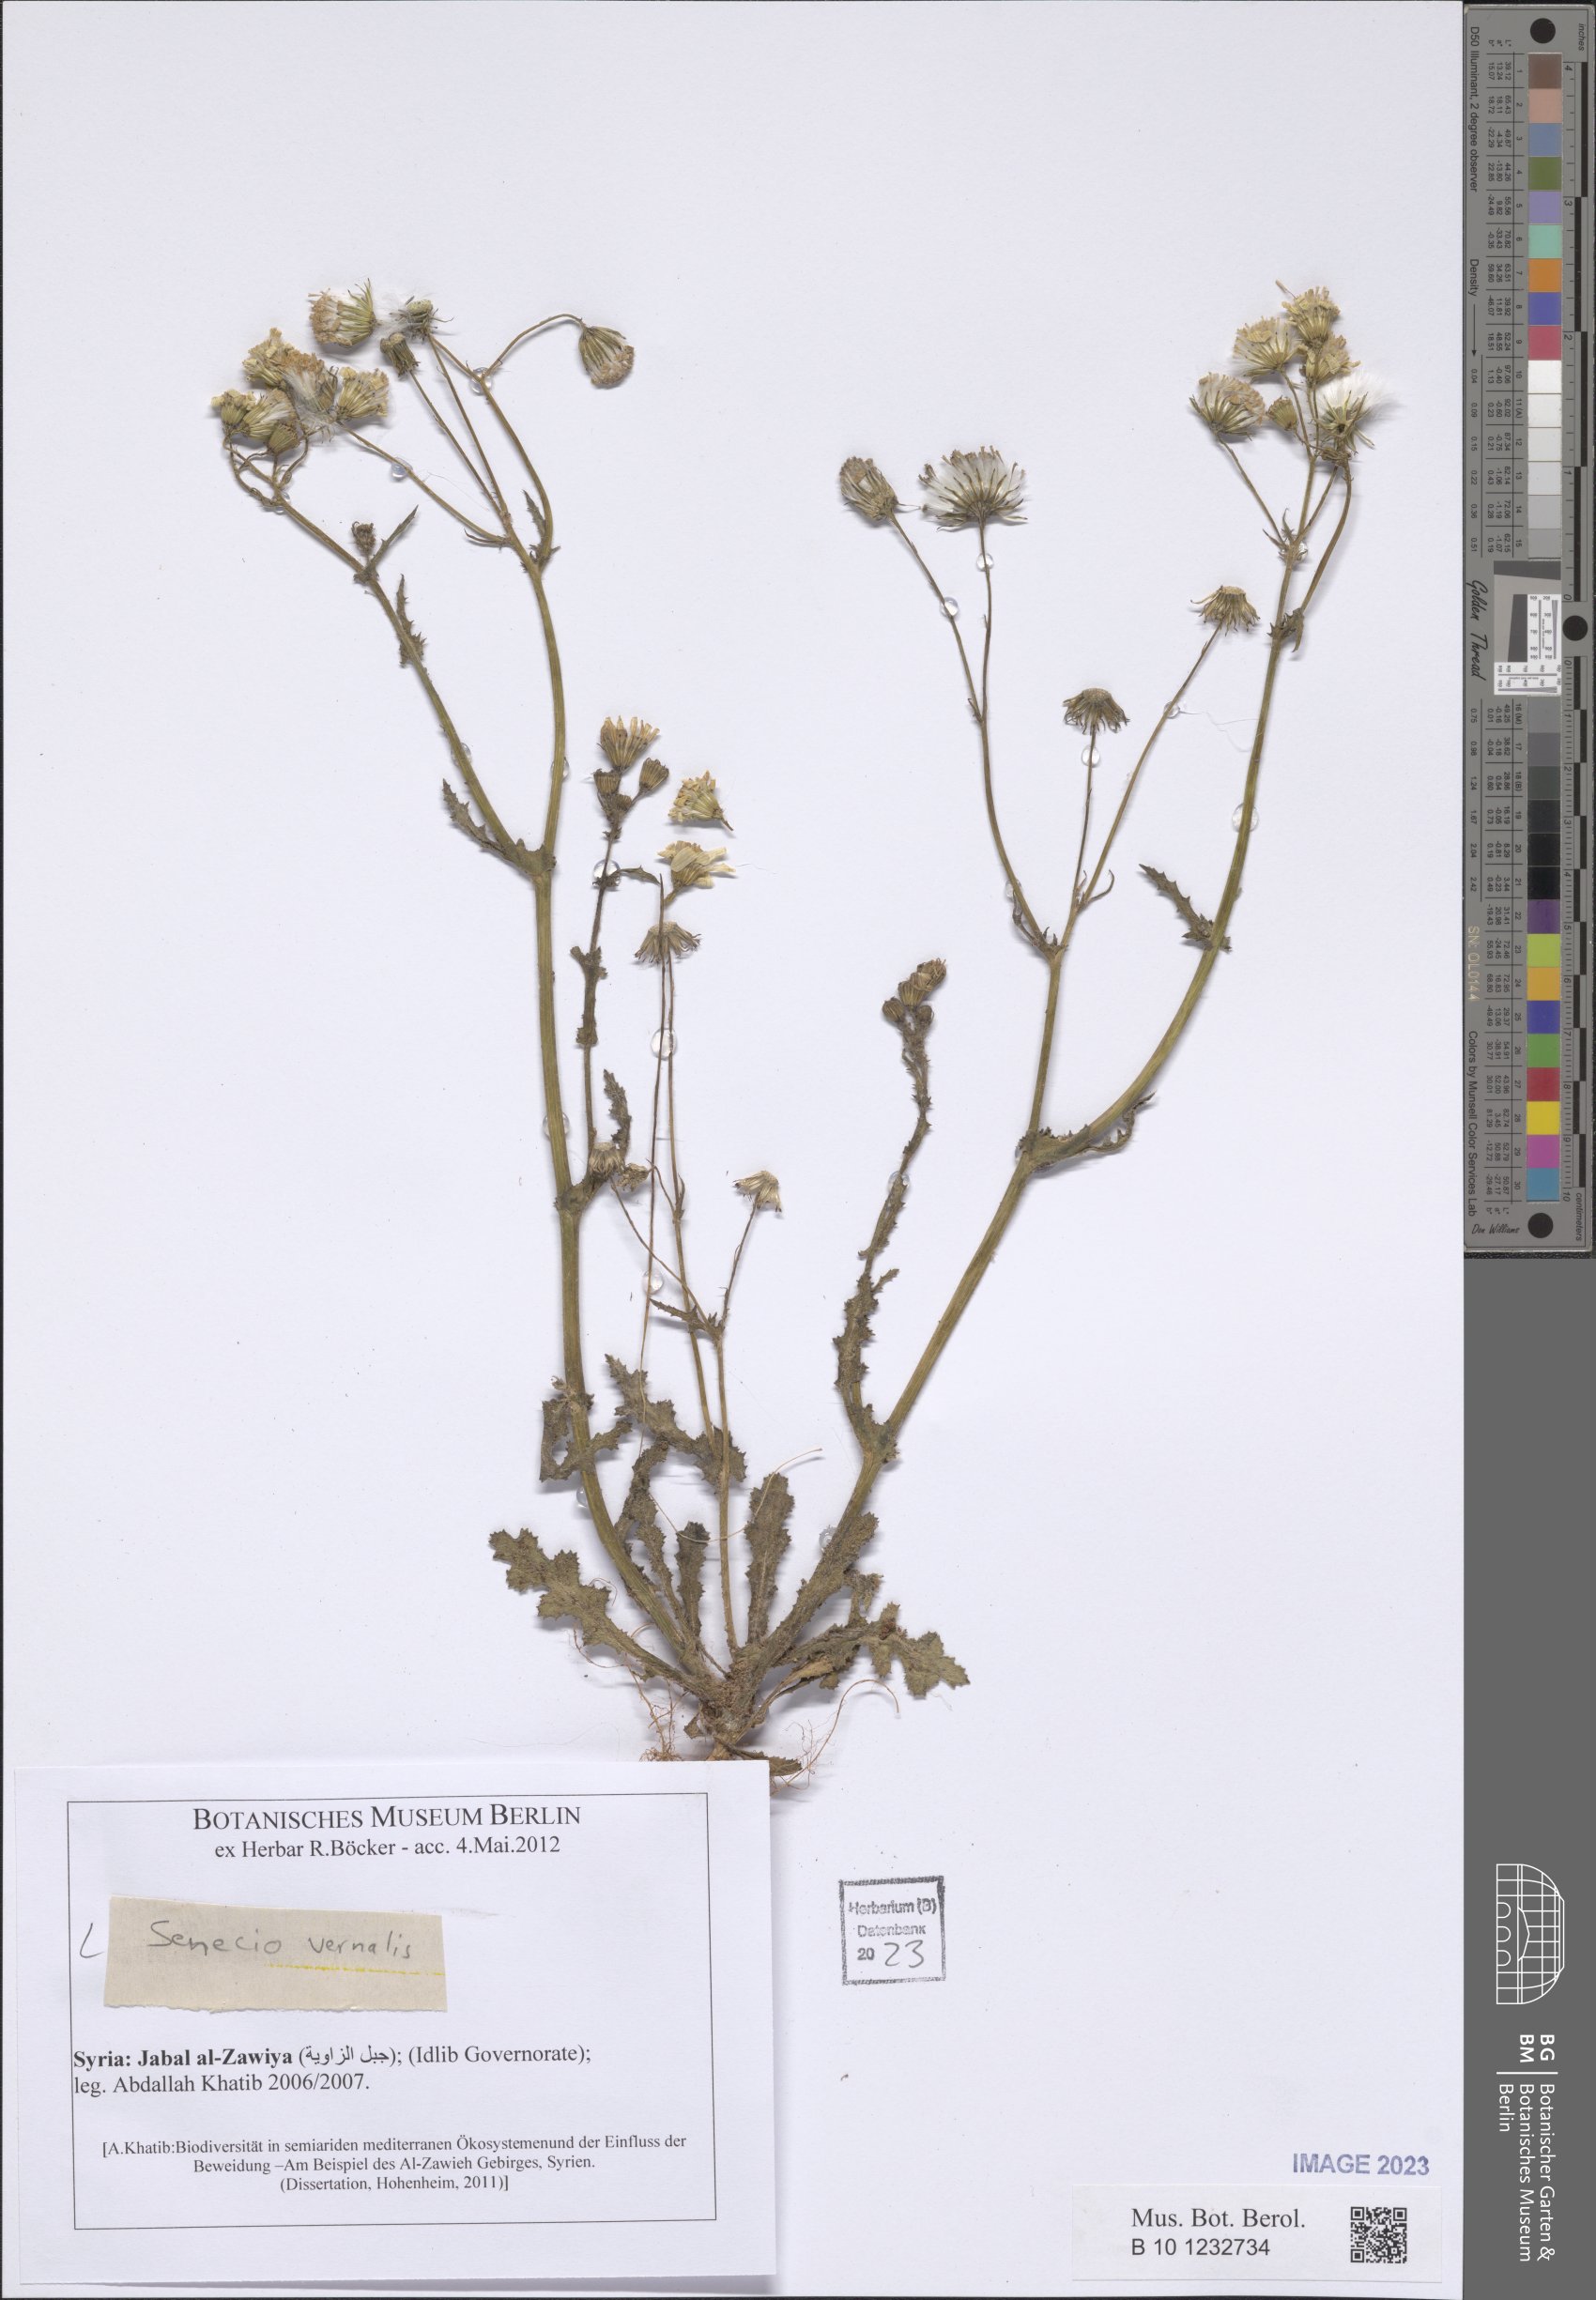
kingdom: Plantae
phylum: Tracheophyta
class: Magnoliopsida
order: Asterales
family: Asteraceae
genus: Senecio
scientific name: Senecio vernalis
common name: Eastern groundsel
